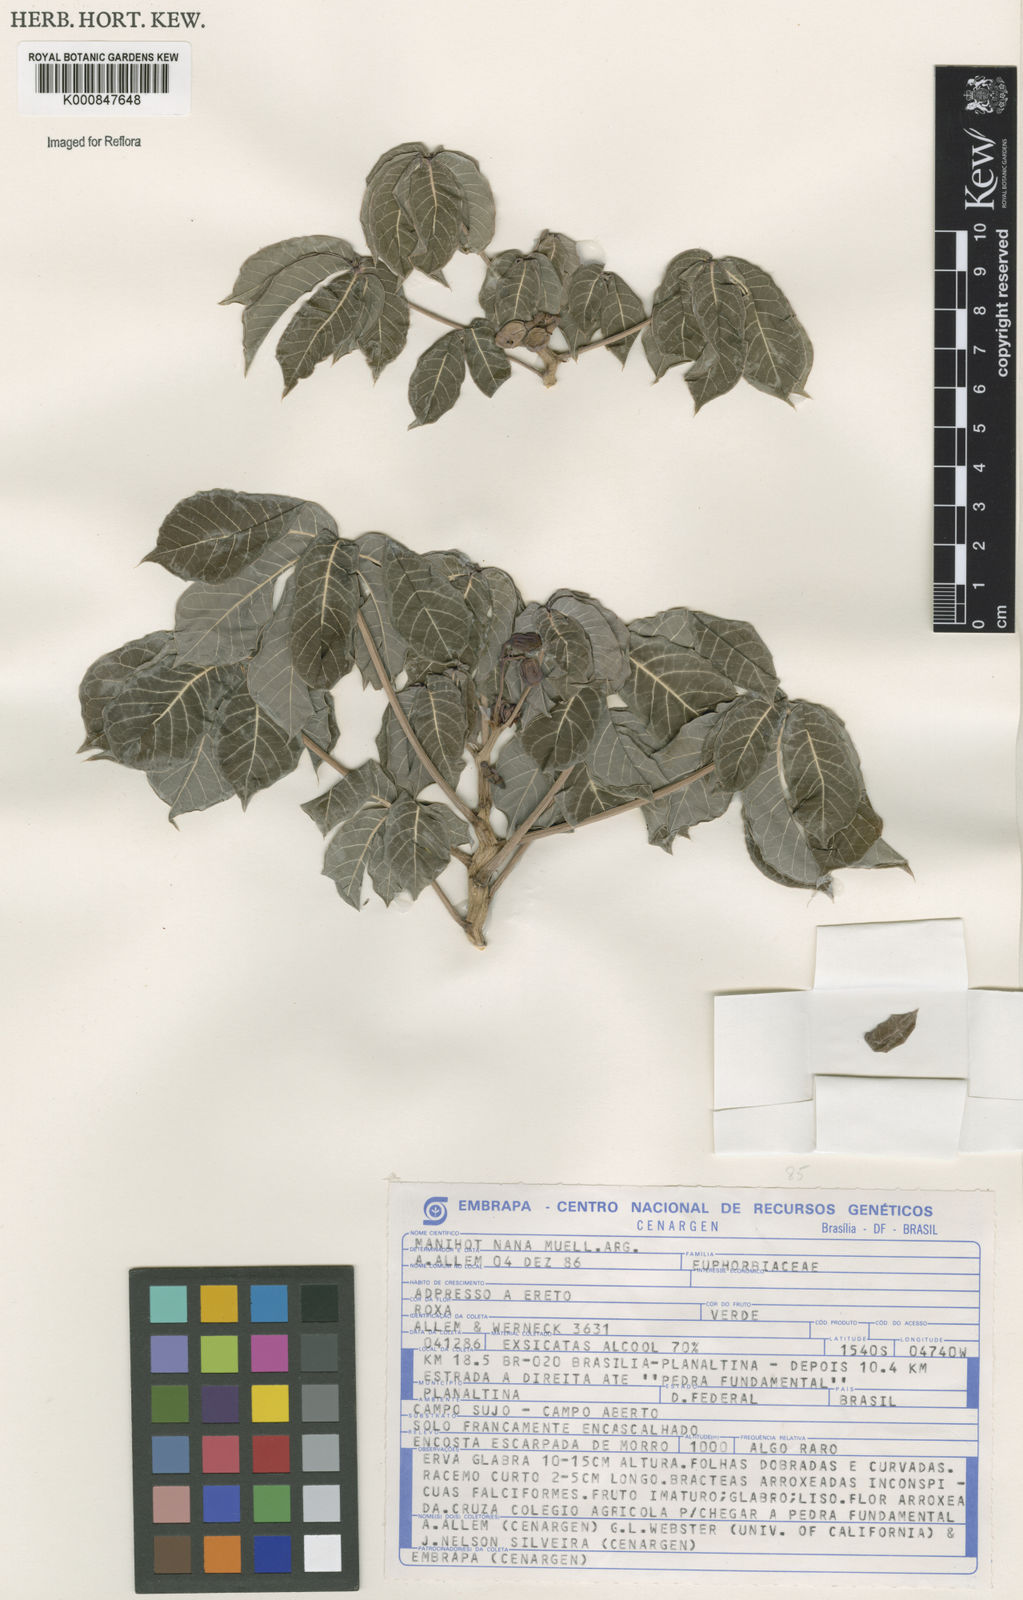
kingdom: Plantae
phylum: Tracheophyta
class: Magnoliopsida
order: Malpighiales
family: Euphorbiaceae
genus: Manihot
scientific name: Manihot
